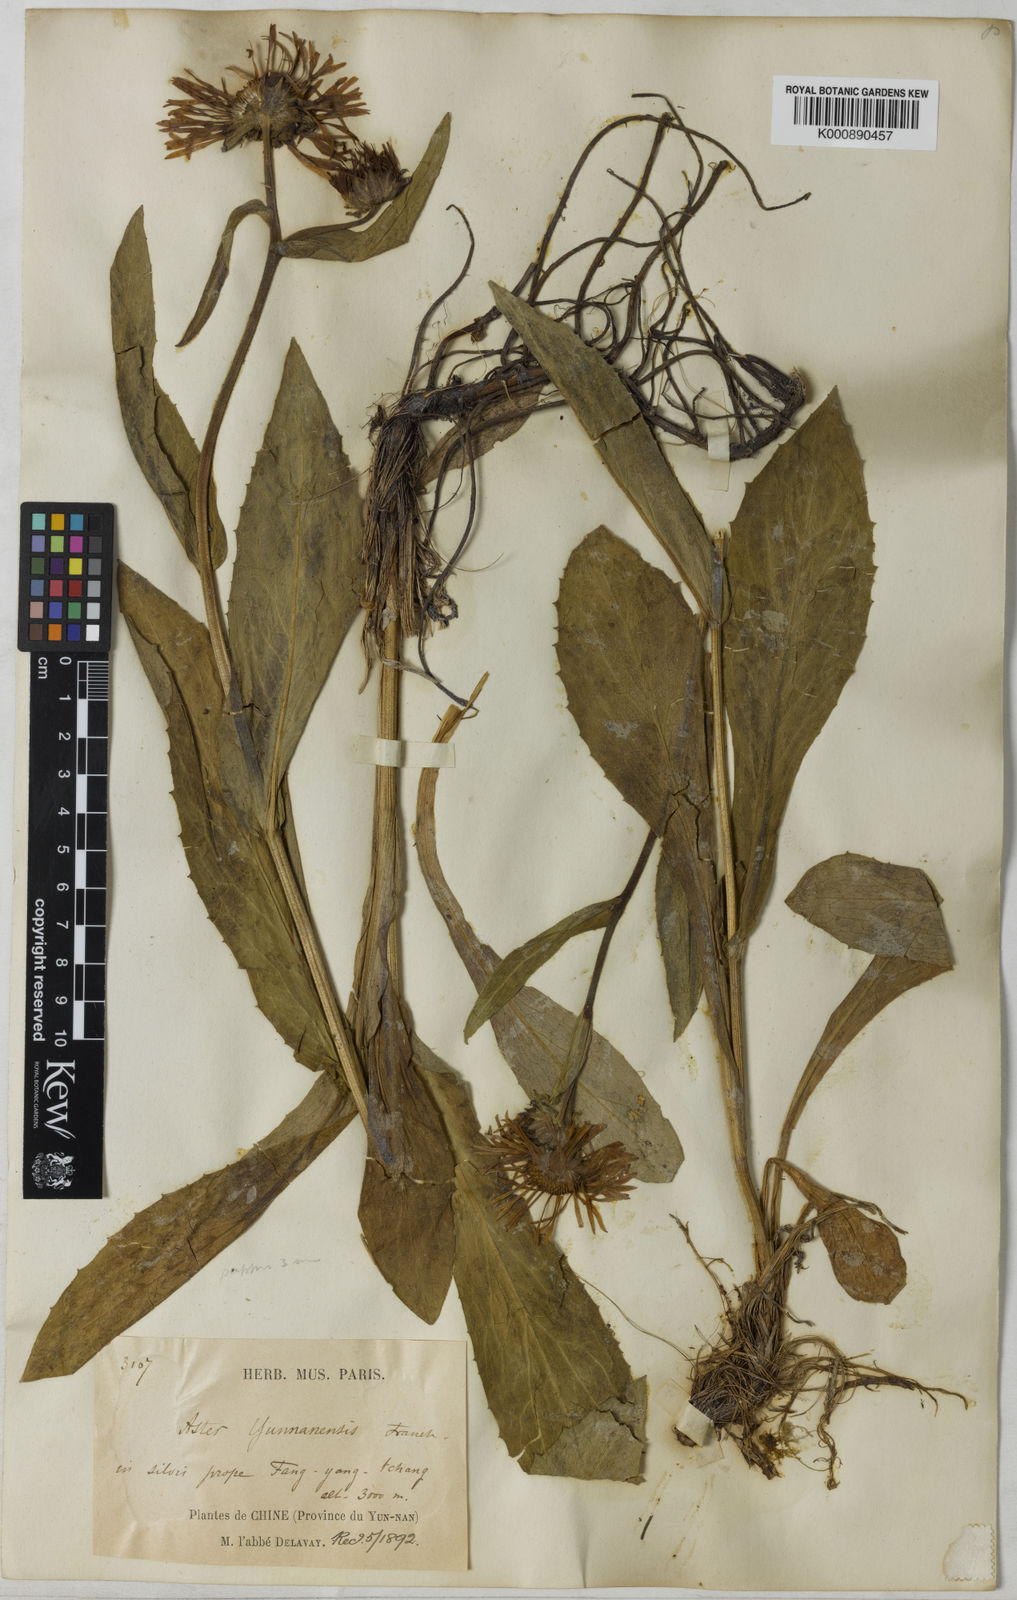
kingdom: Plantae
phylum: Tracheophyta
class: Magnoliopsida
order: Asterales
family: Asteraceae
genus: Tibetiodes
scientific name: Tibetiodes yunnanensis
